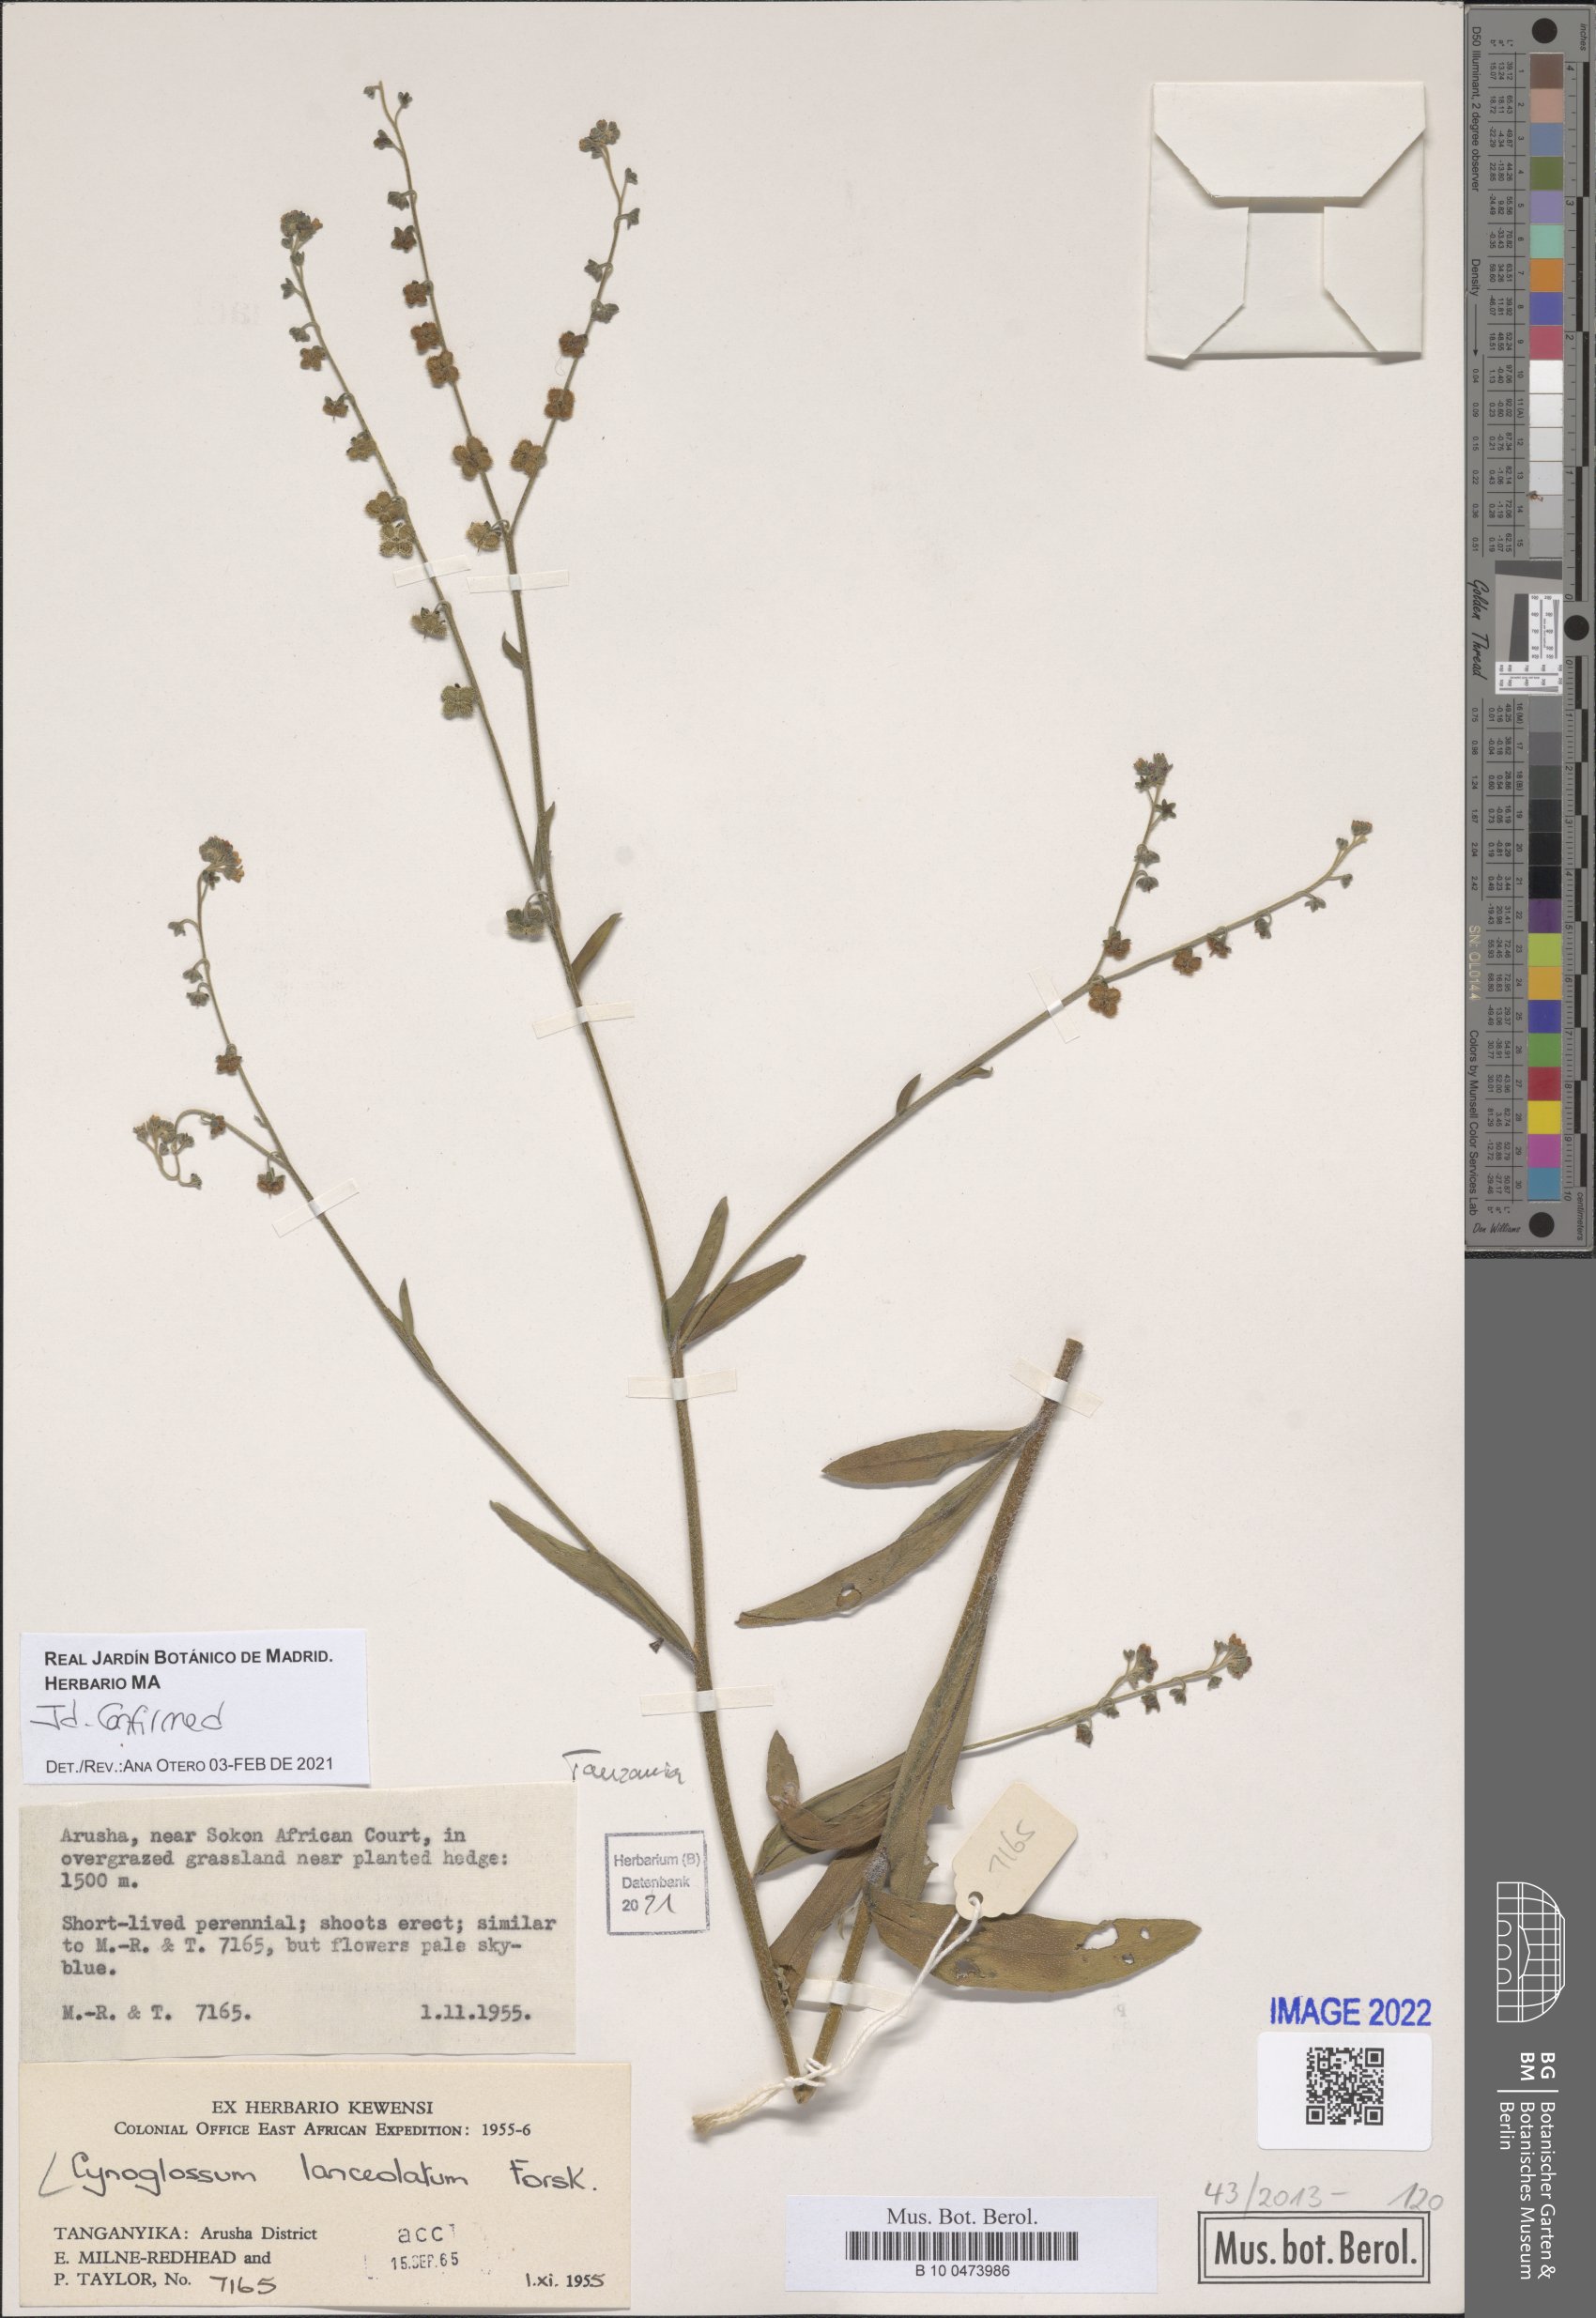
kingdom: Plantae
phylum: Tracheophyta
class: Magnoliopsida
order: Boraginales
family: Boraginaceae
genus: Paracynoglossum
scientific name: Paracynoglossum lanceolatum
